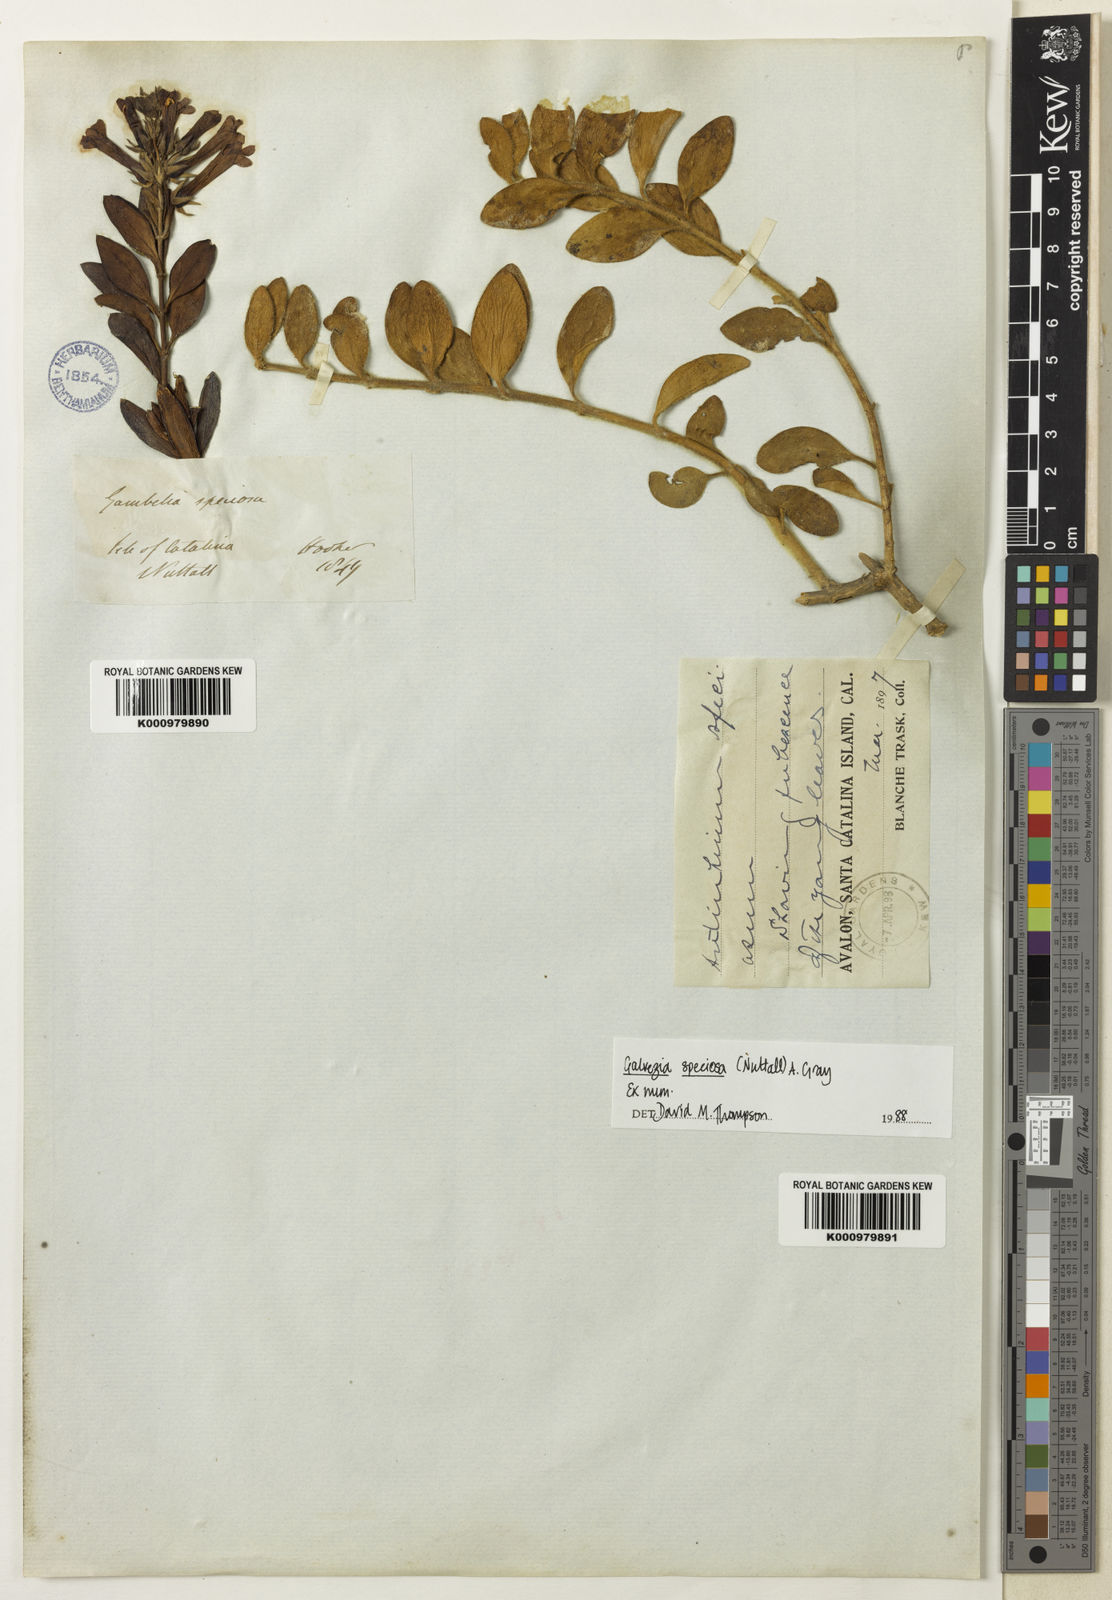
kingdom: Plantae
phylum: Tracheophyta
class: Magnoliopsida
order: Lamiales
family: Plantaginaceae
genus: Gambelia
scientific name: Gambelia speciosa
